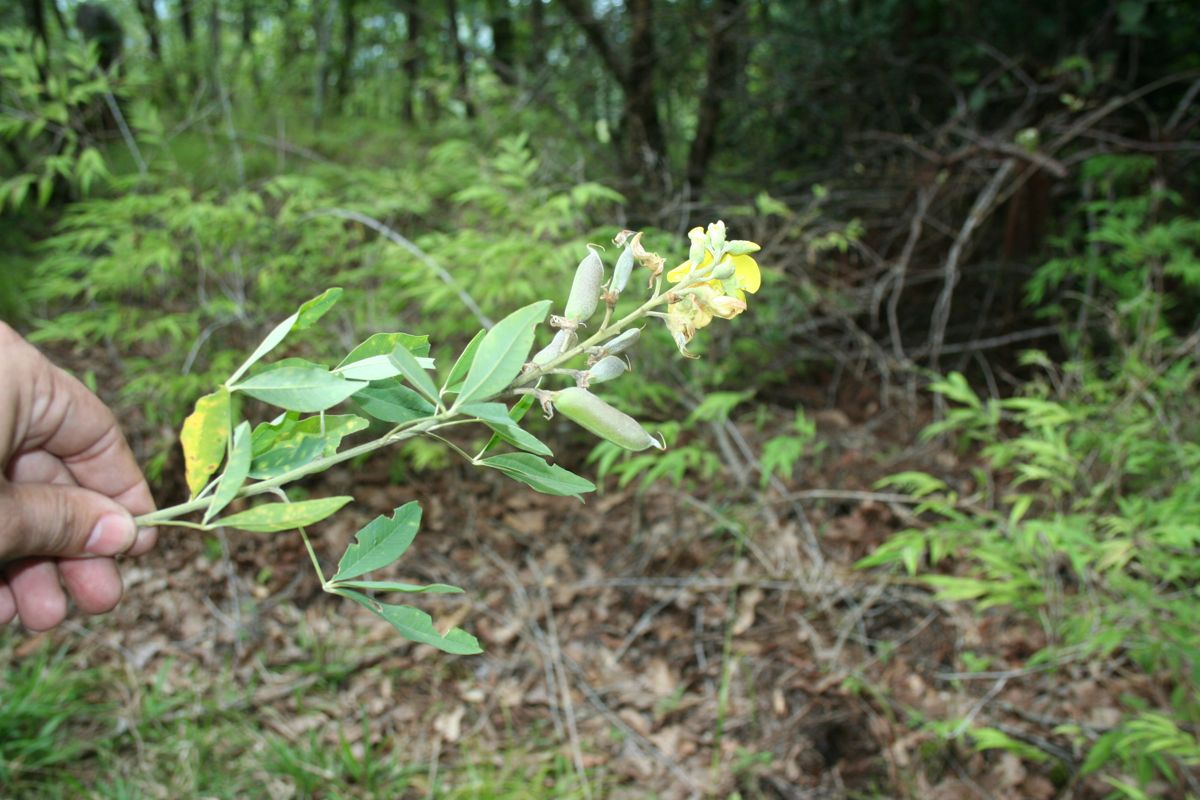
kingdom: Plantae
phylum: Tracheophyta
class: Magnoliopsida
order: Fabales
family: Fabaceae
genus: Crotalaria
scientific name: Crotalaria vitellina
